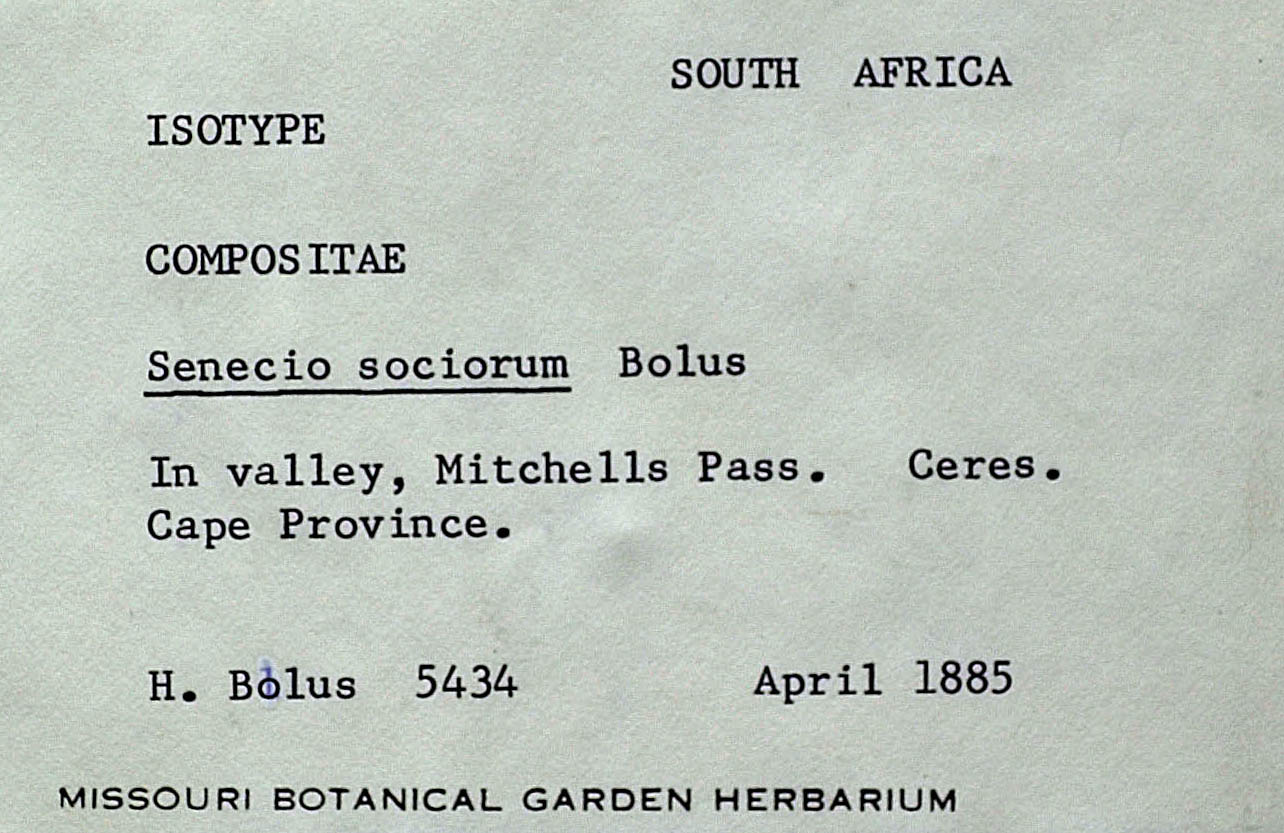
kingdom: Plantae
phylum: Tracheophyta
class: Magnoliopsida
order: Asterales
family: Asteraceae
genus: Senecio
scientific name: Senecio sociorum
